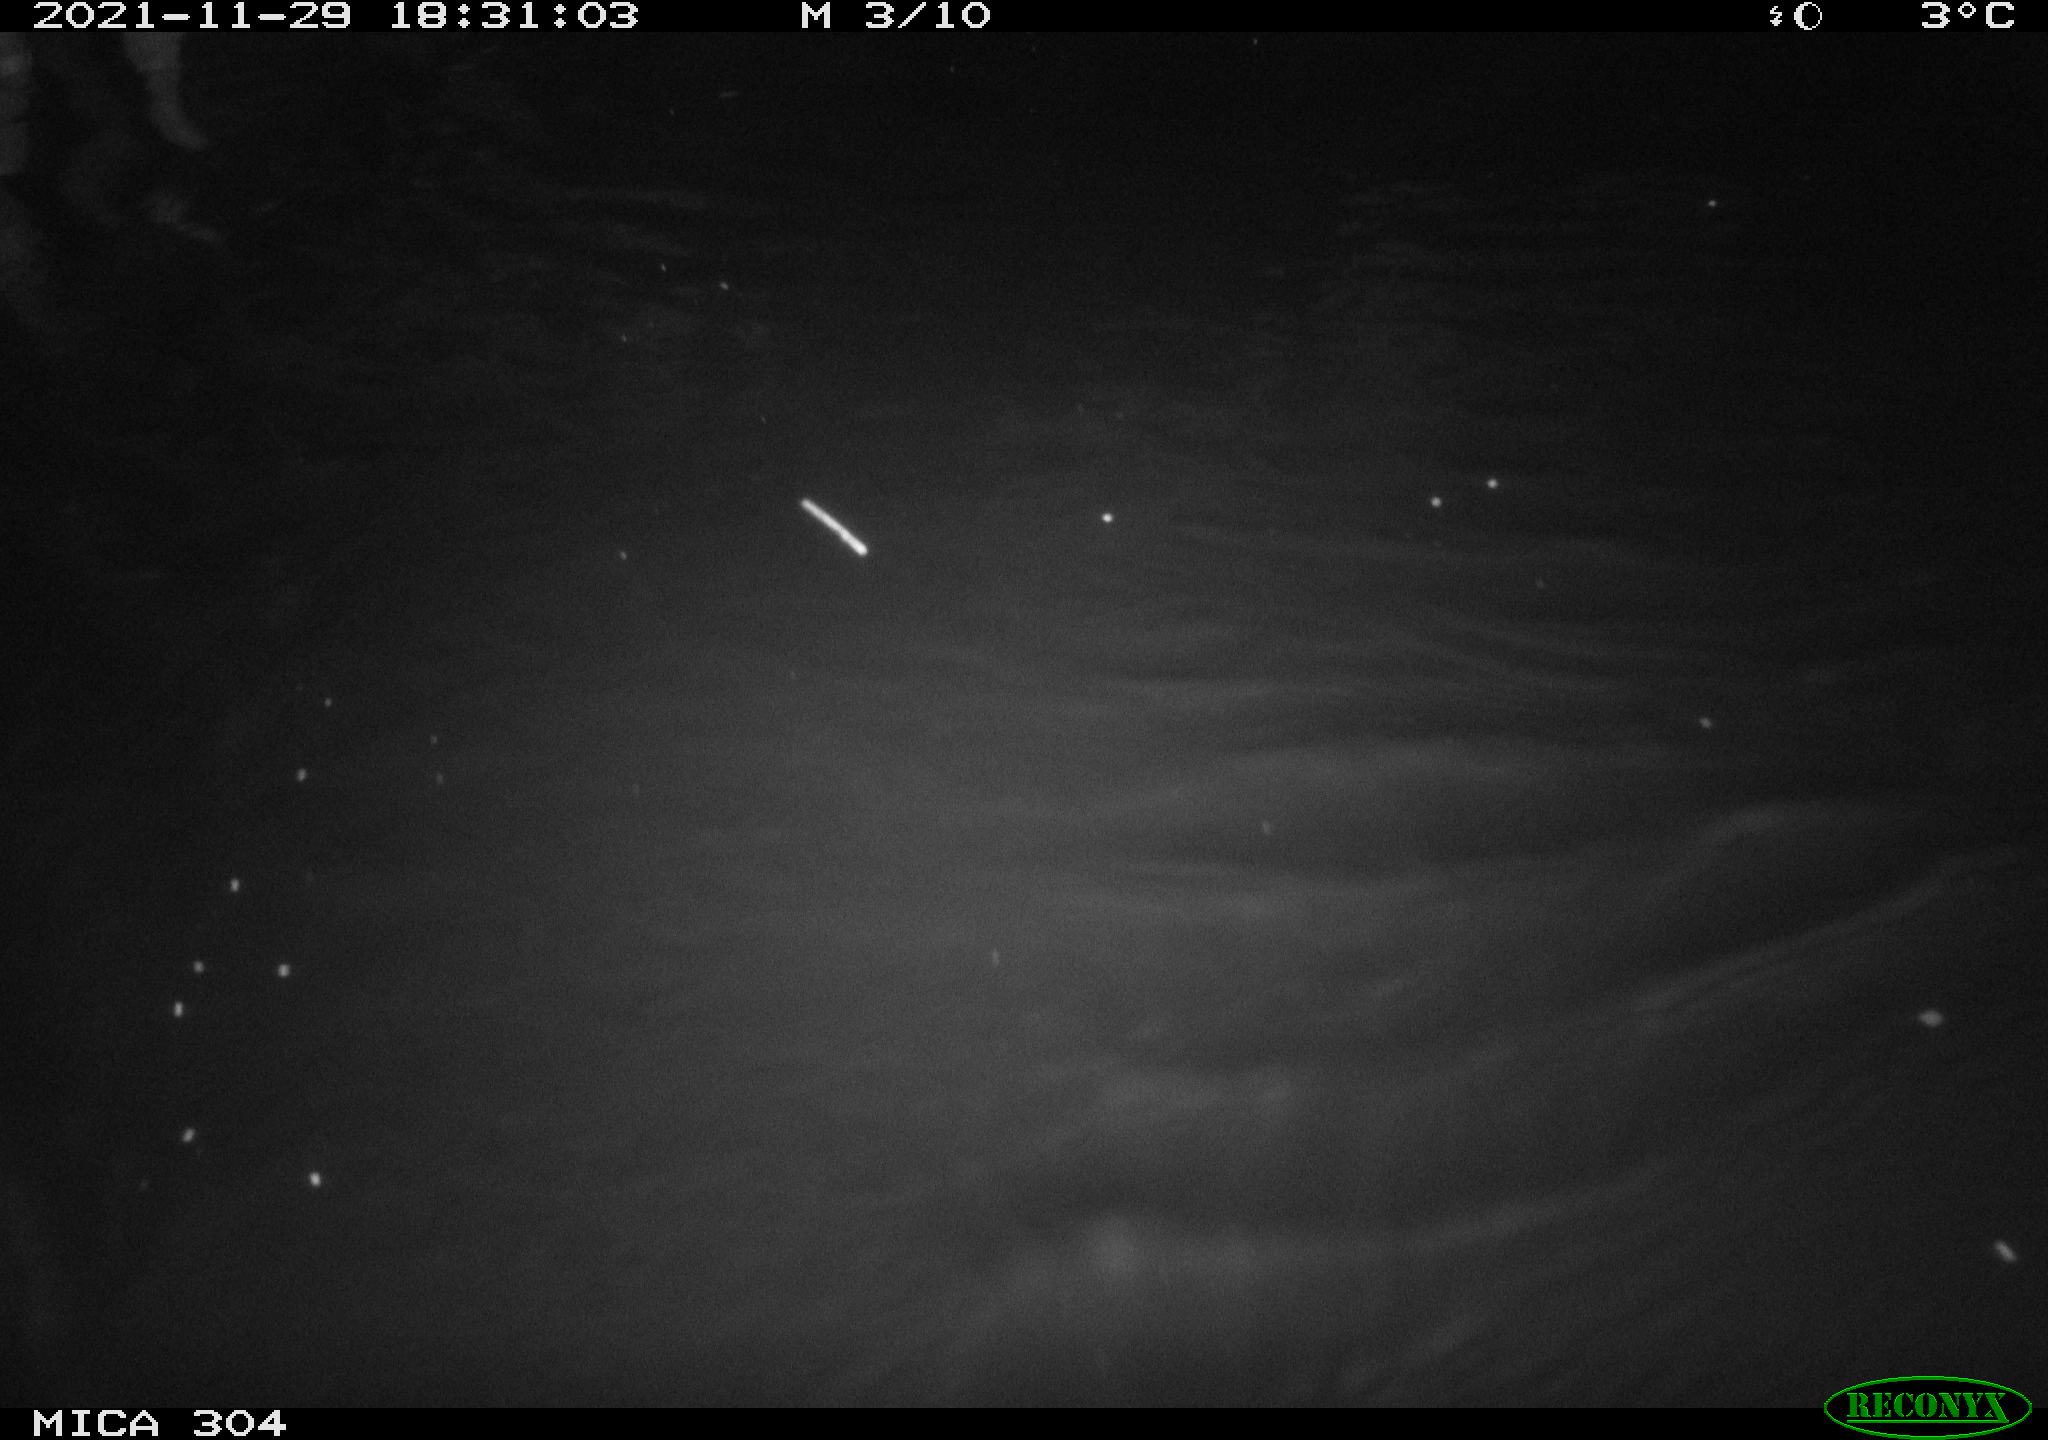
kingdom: Animalia
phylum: Chordata
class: Mammalia
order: Rodentia
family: Muridae
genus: Rattus
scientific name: Rattus norvegicus
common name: Brown rat
